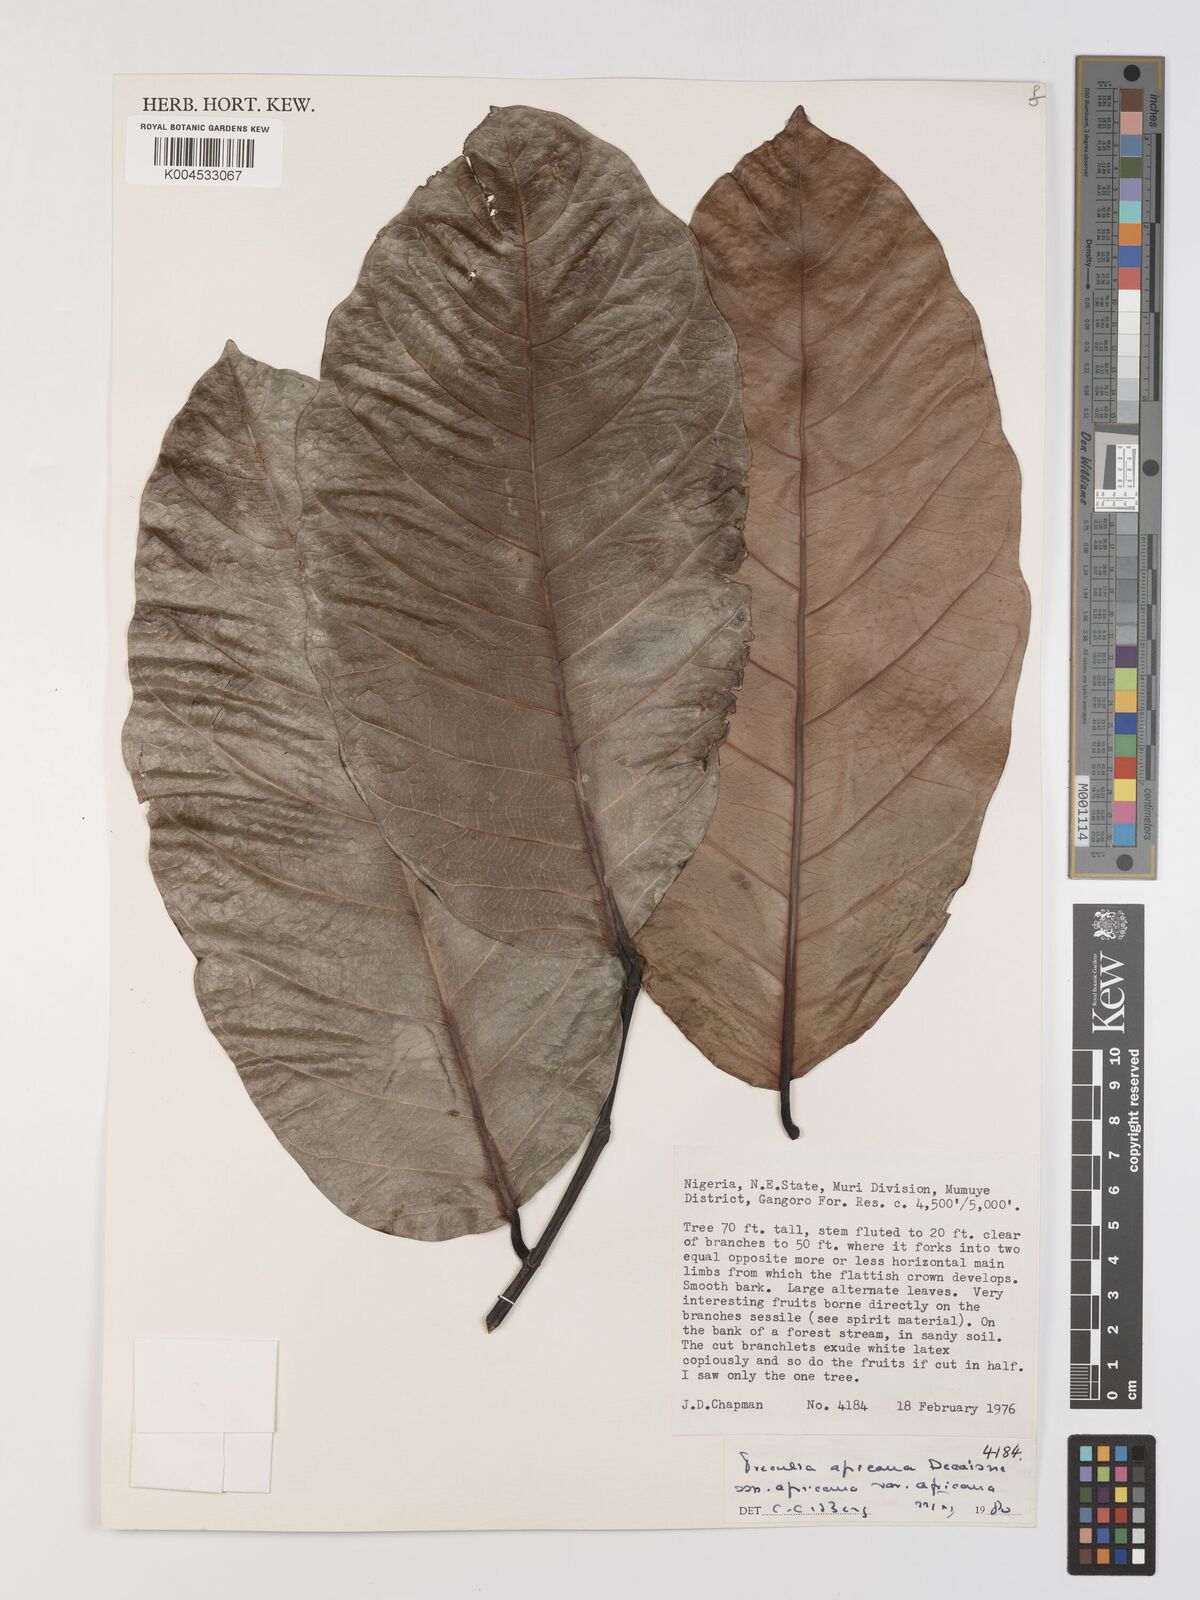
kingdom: Plantae
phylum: Tracheophyta
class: Magnoliopsida
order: Rosales
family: Moraceae
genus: Treculia
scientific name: Treculia africana
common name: African breadfruit
